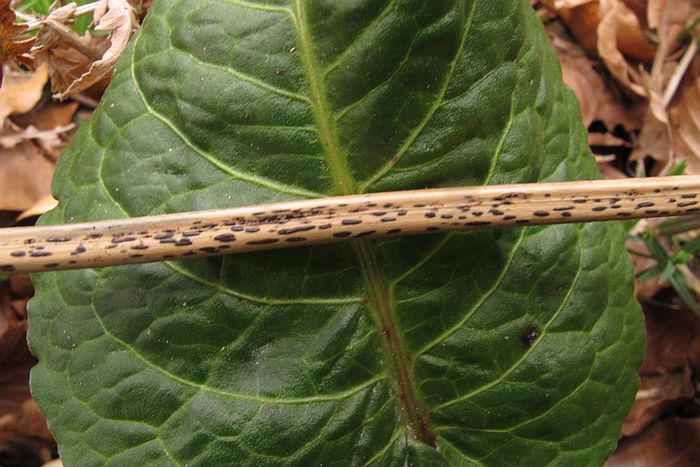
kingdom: Fungi
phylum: Ascomycota
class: Dothideomycetes
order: Pleosporales
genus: Rhopographus
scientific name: Rhopographus filicinus
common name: Bracken map
